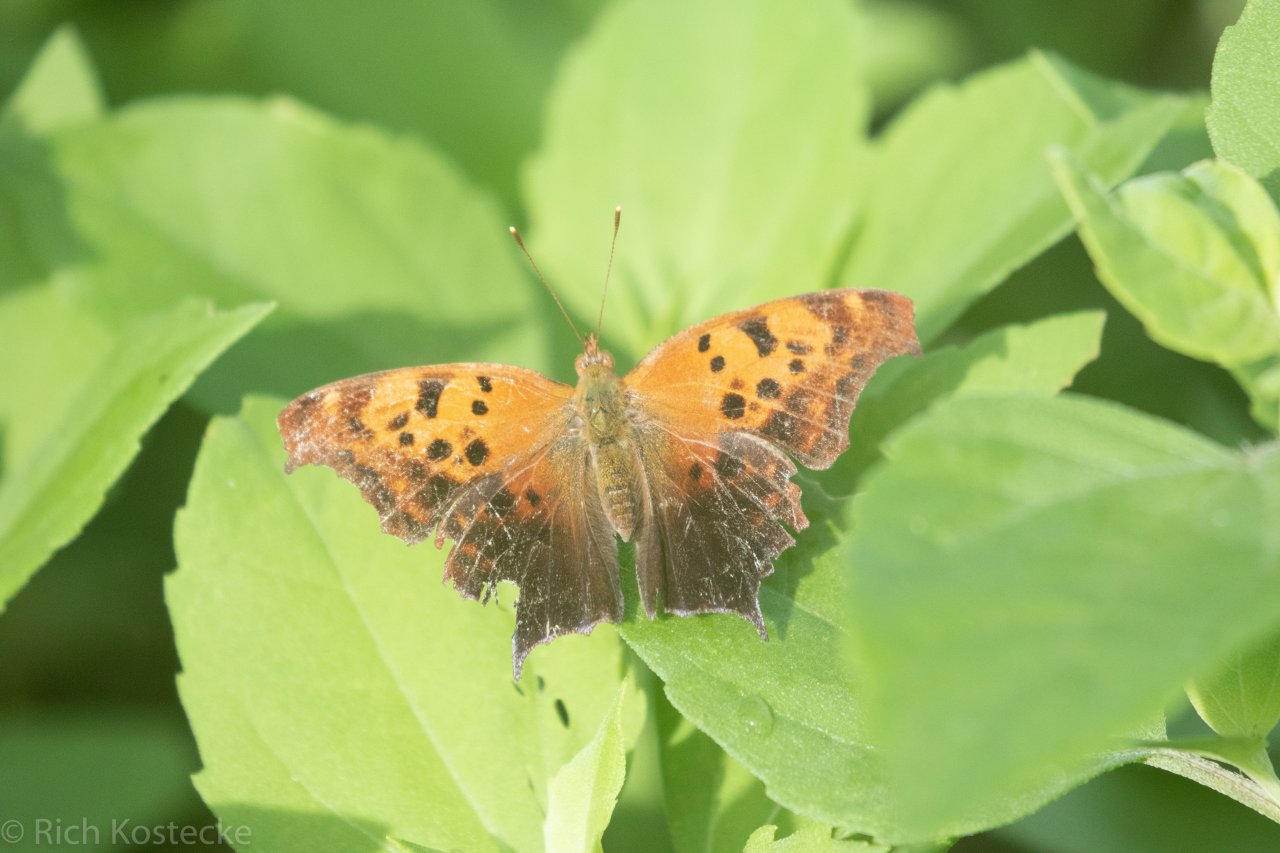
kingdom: Animalia
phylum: Arthropoda
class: Insecta
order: Lepidoptera
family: Nymphalidae
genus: Polygonia
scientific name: Polygonia interrogationis
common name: Question Mark
